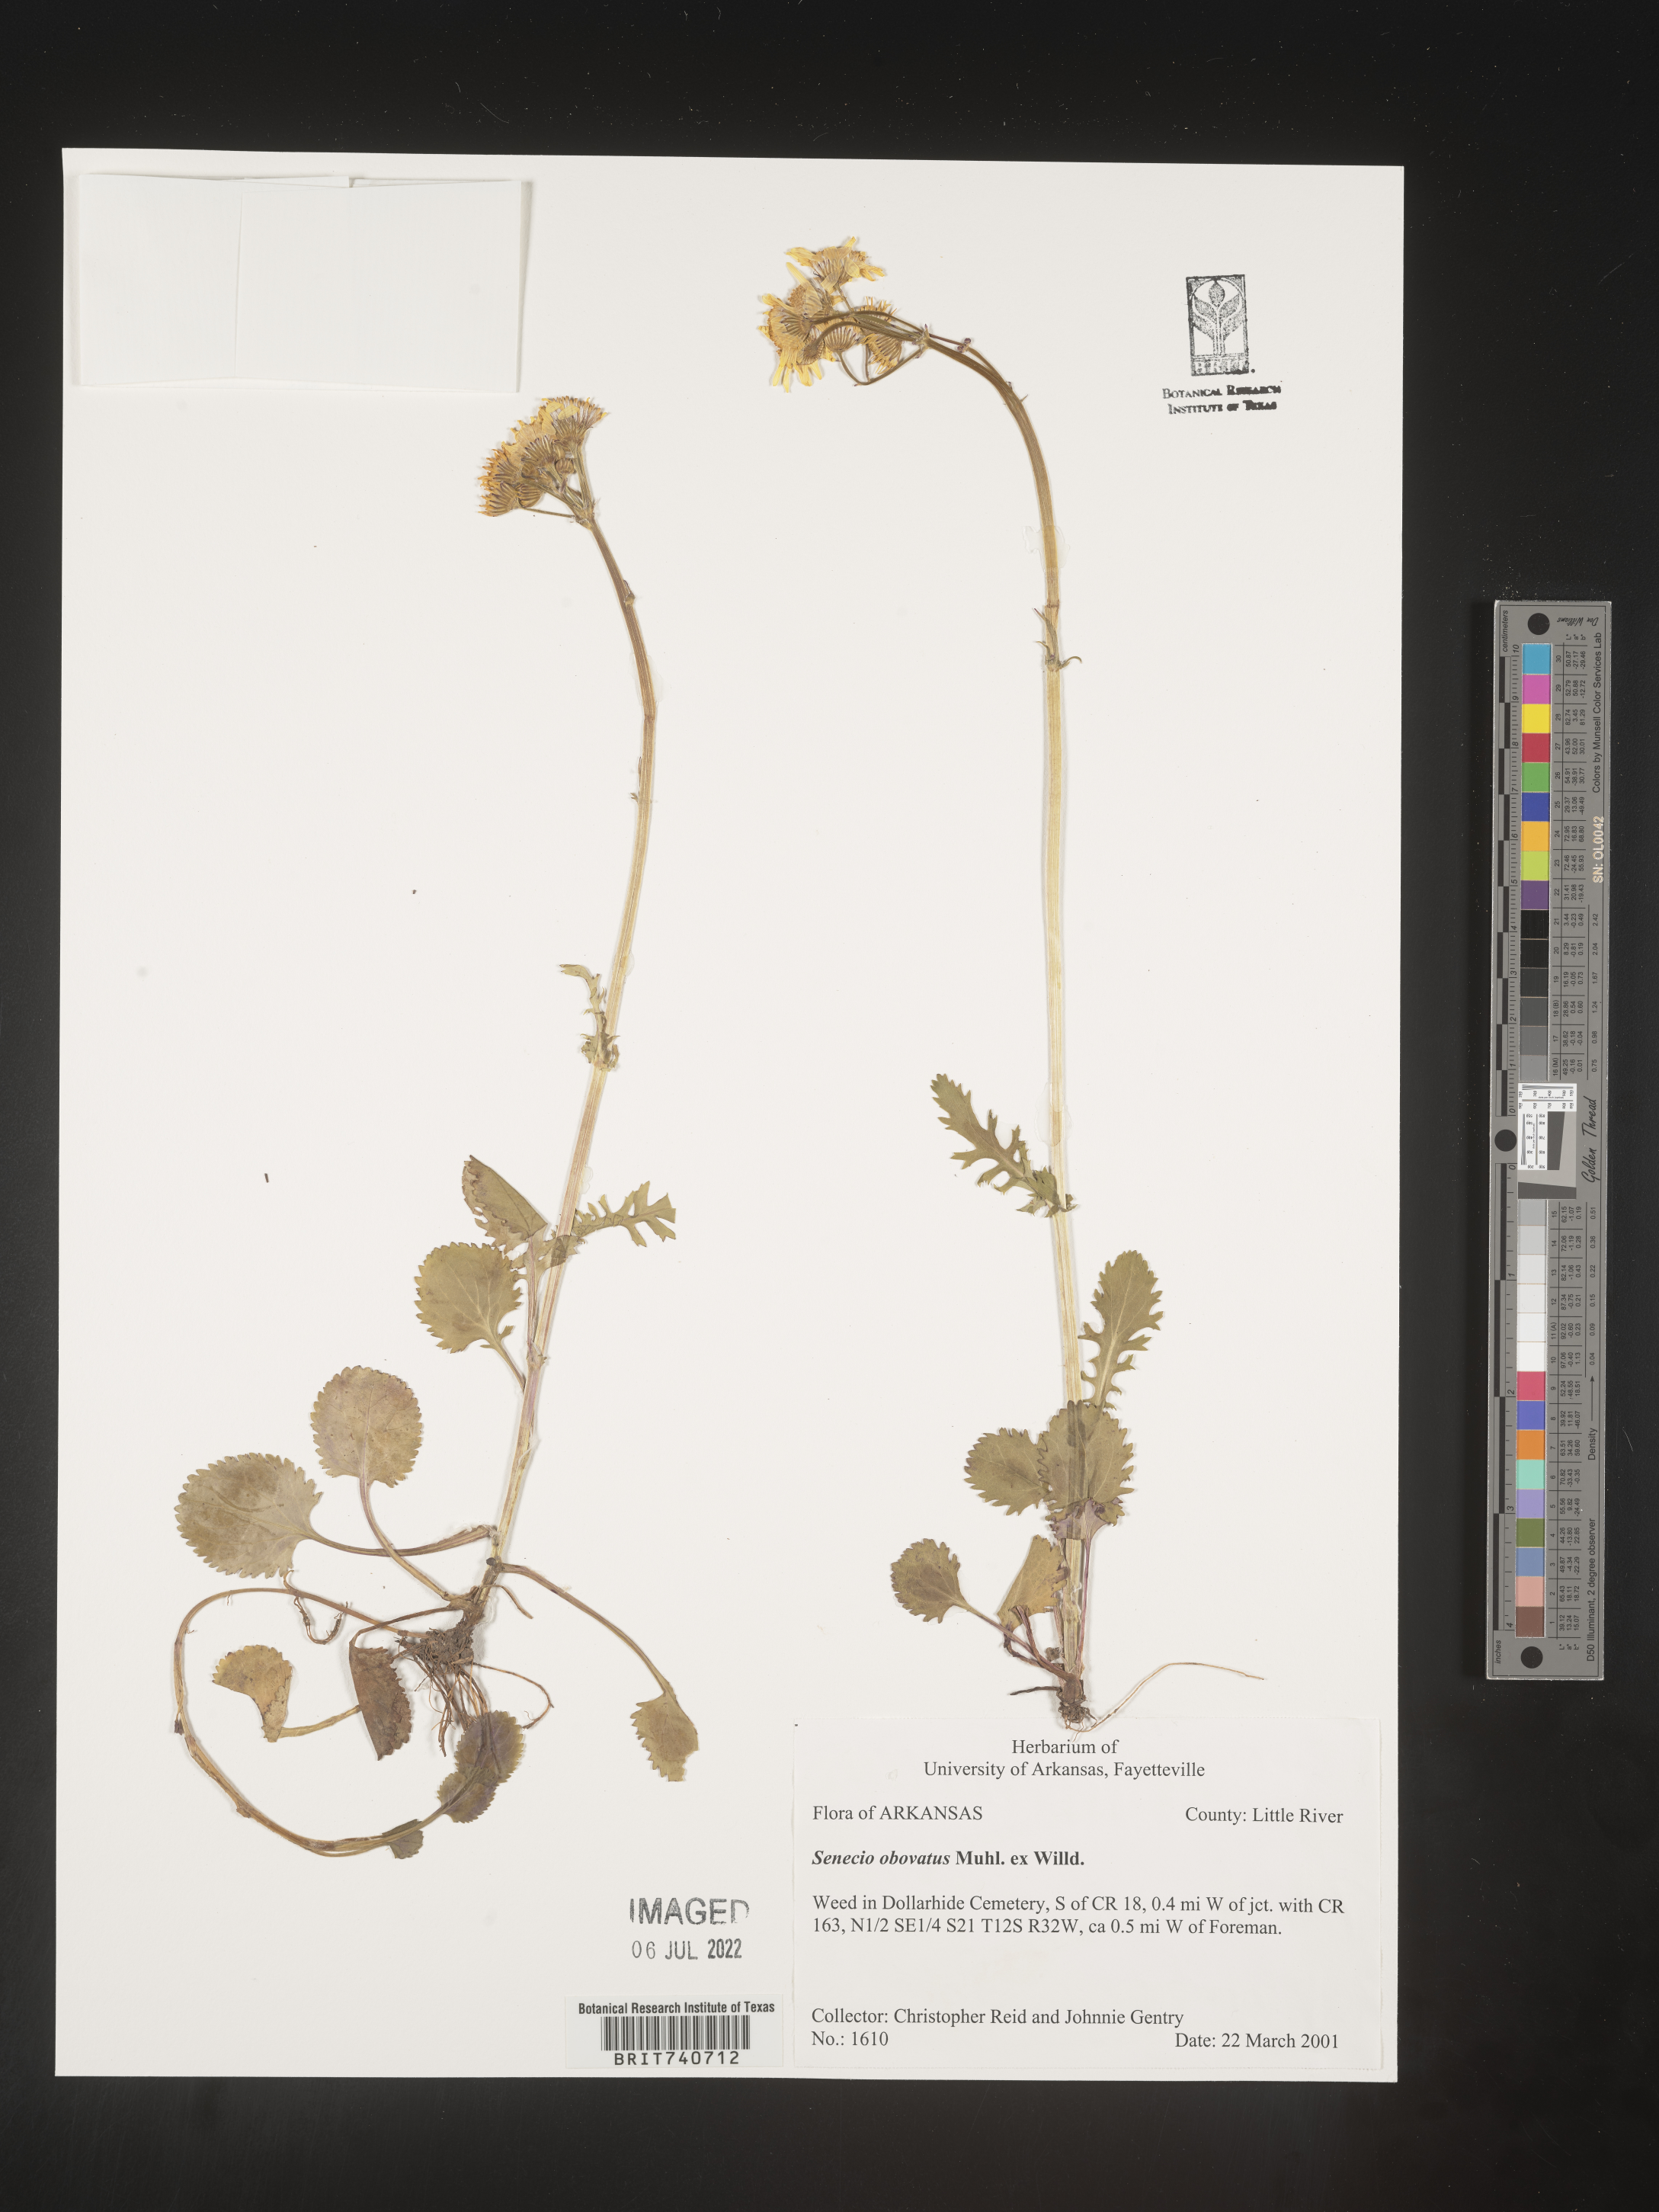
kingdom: Plantae
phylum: Tracheophyta
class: Magnoliopsida
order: Asterales
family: Asteraceae
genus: Senecio
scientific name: Senecio
